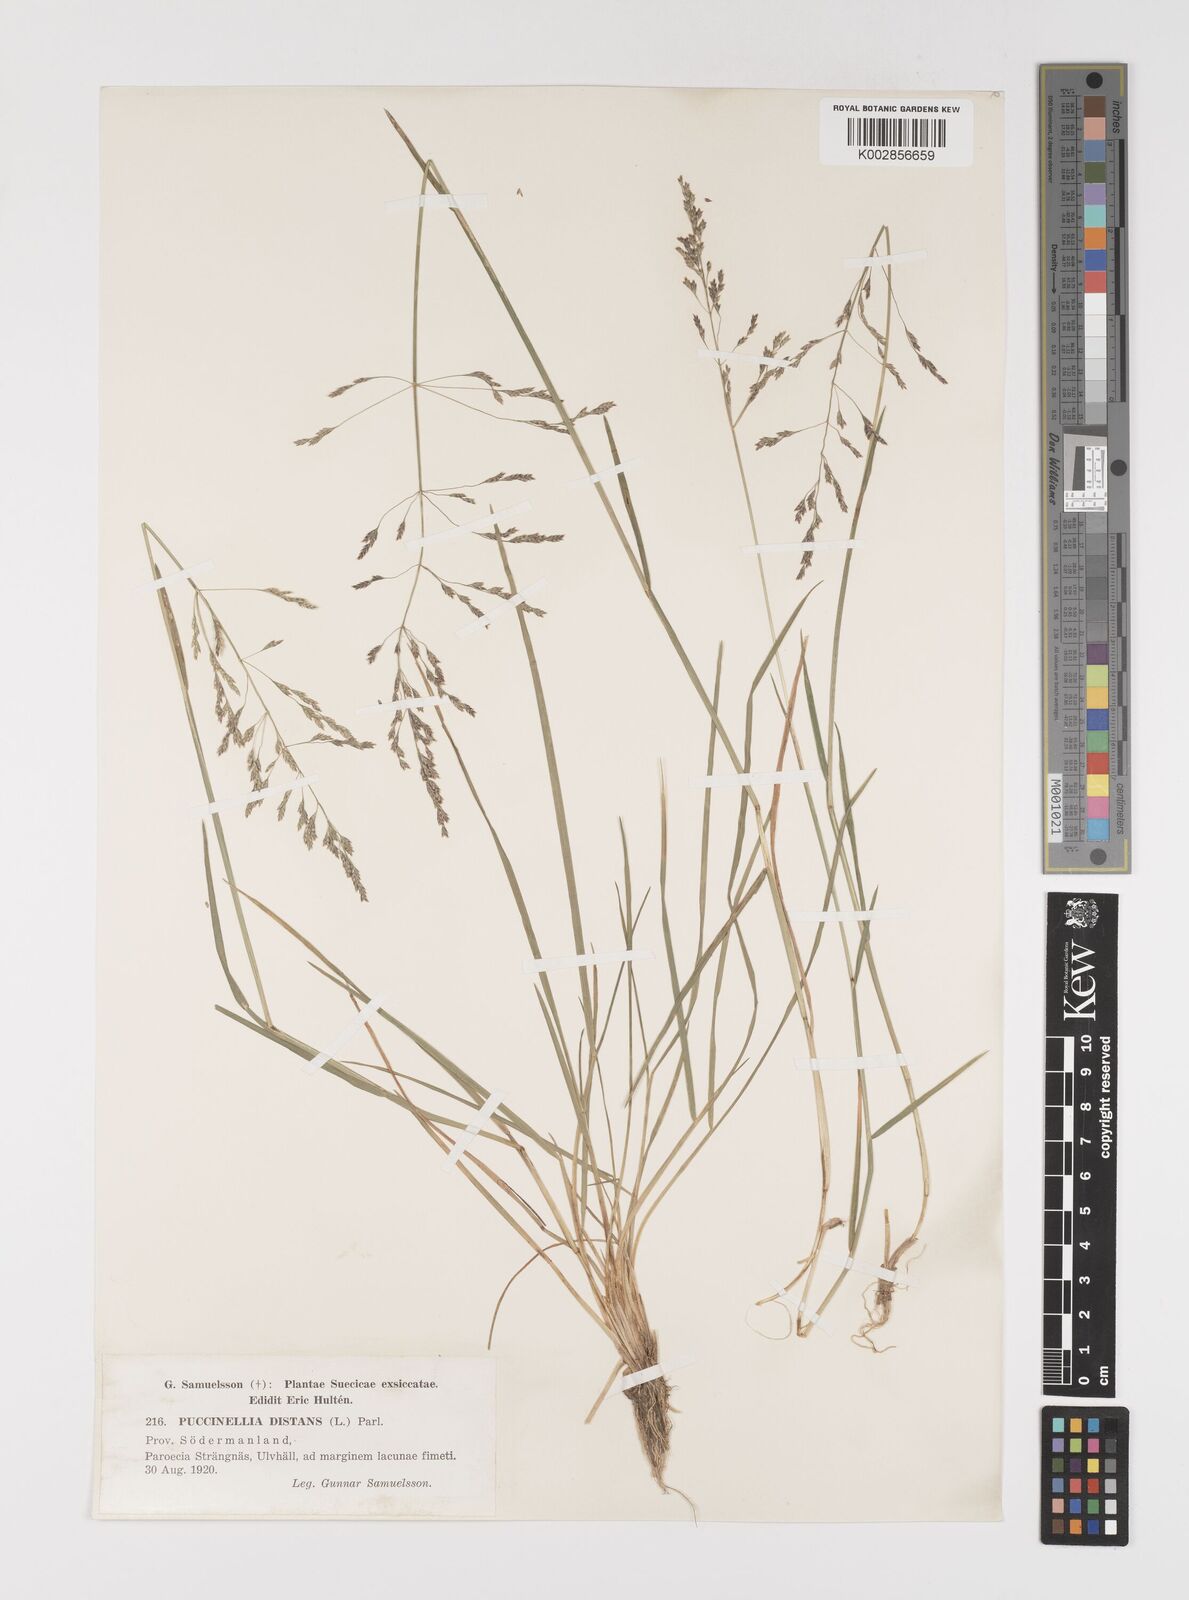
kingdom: Plantae
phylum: Tracheophyta
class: Liliopsida
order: Poales
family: Poaceae
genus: Puccinellia
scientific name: Puccinellia
